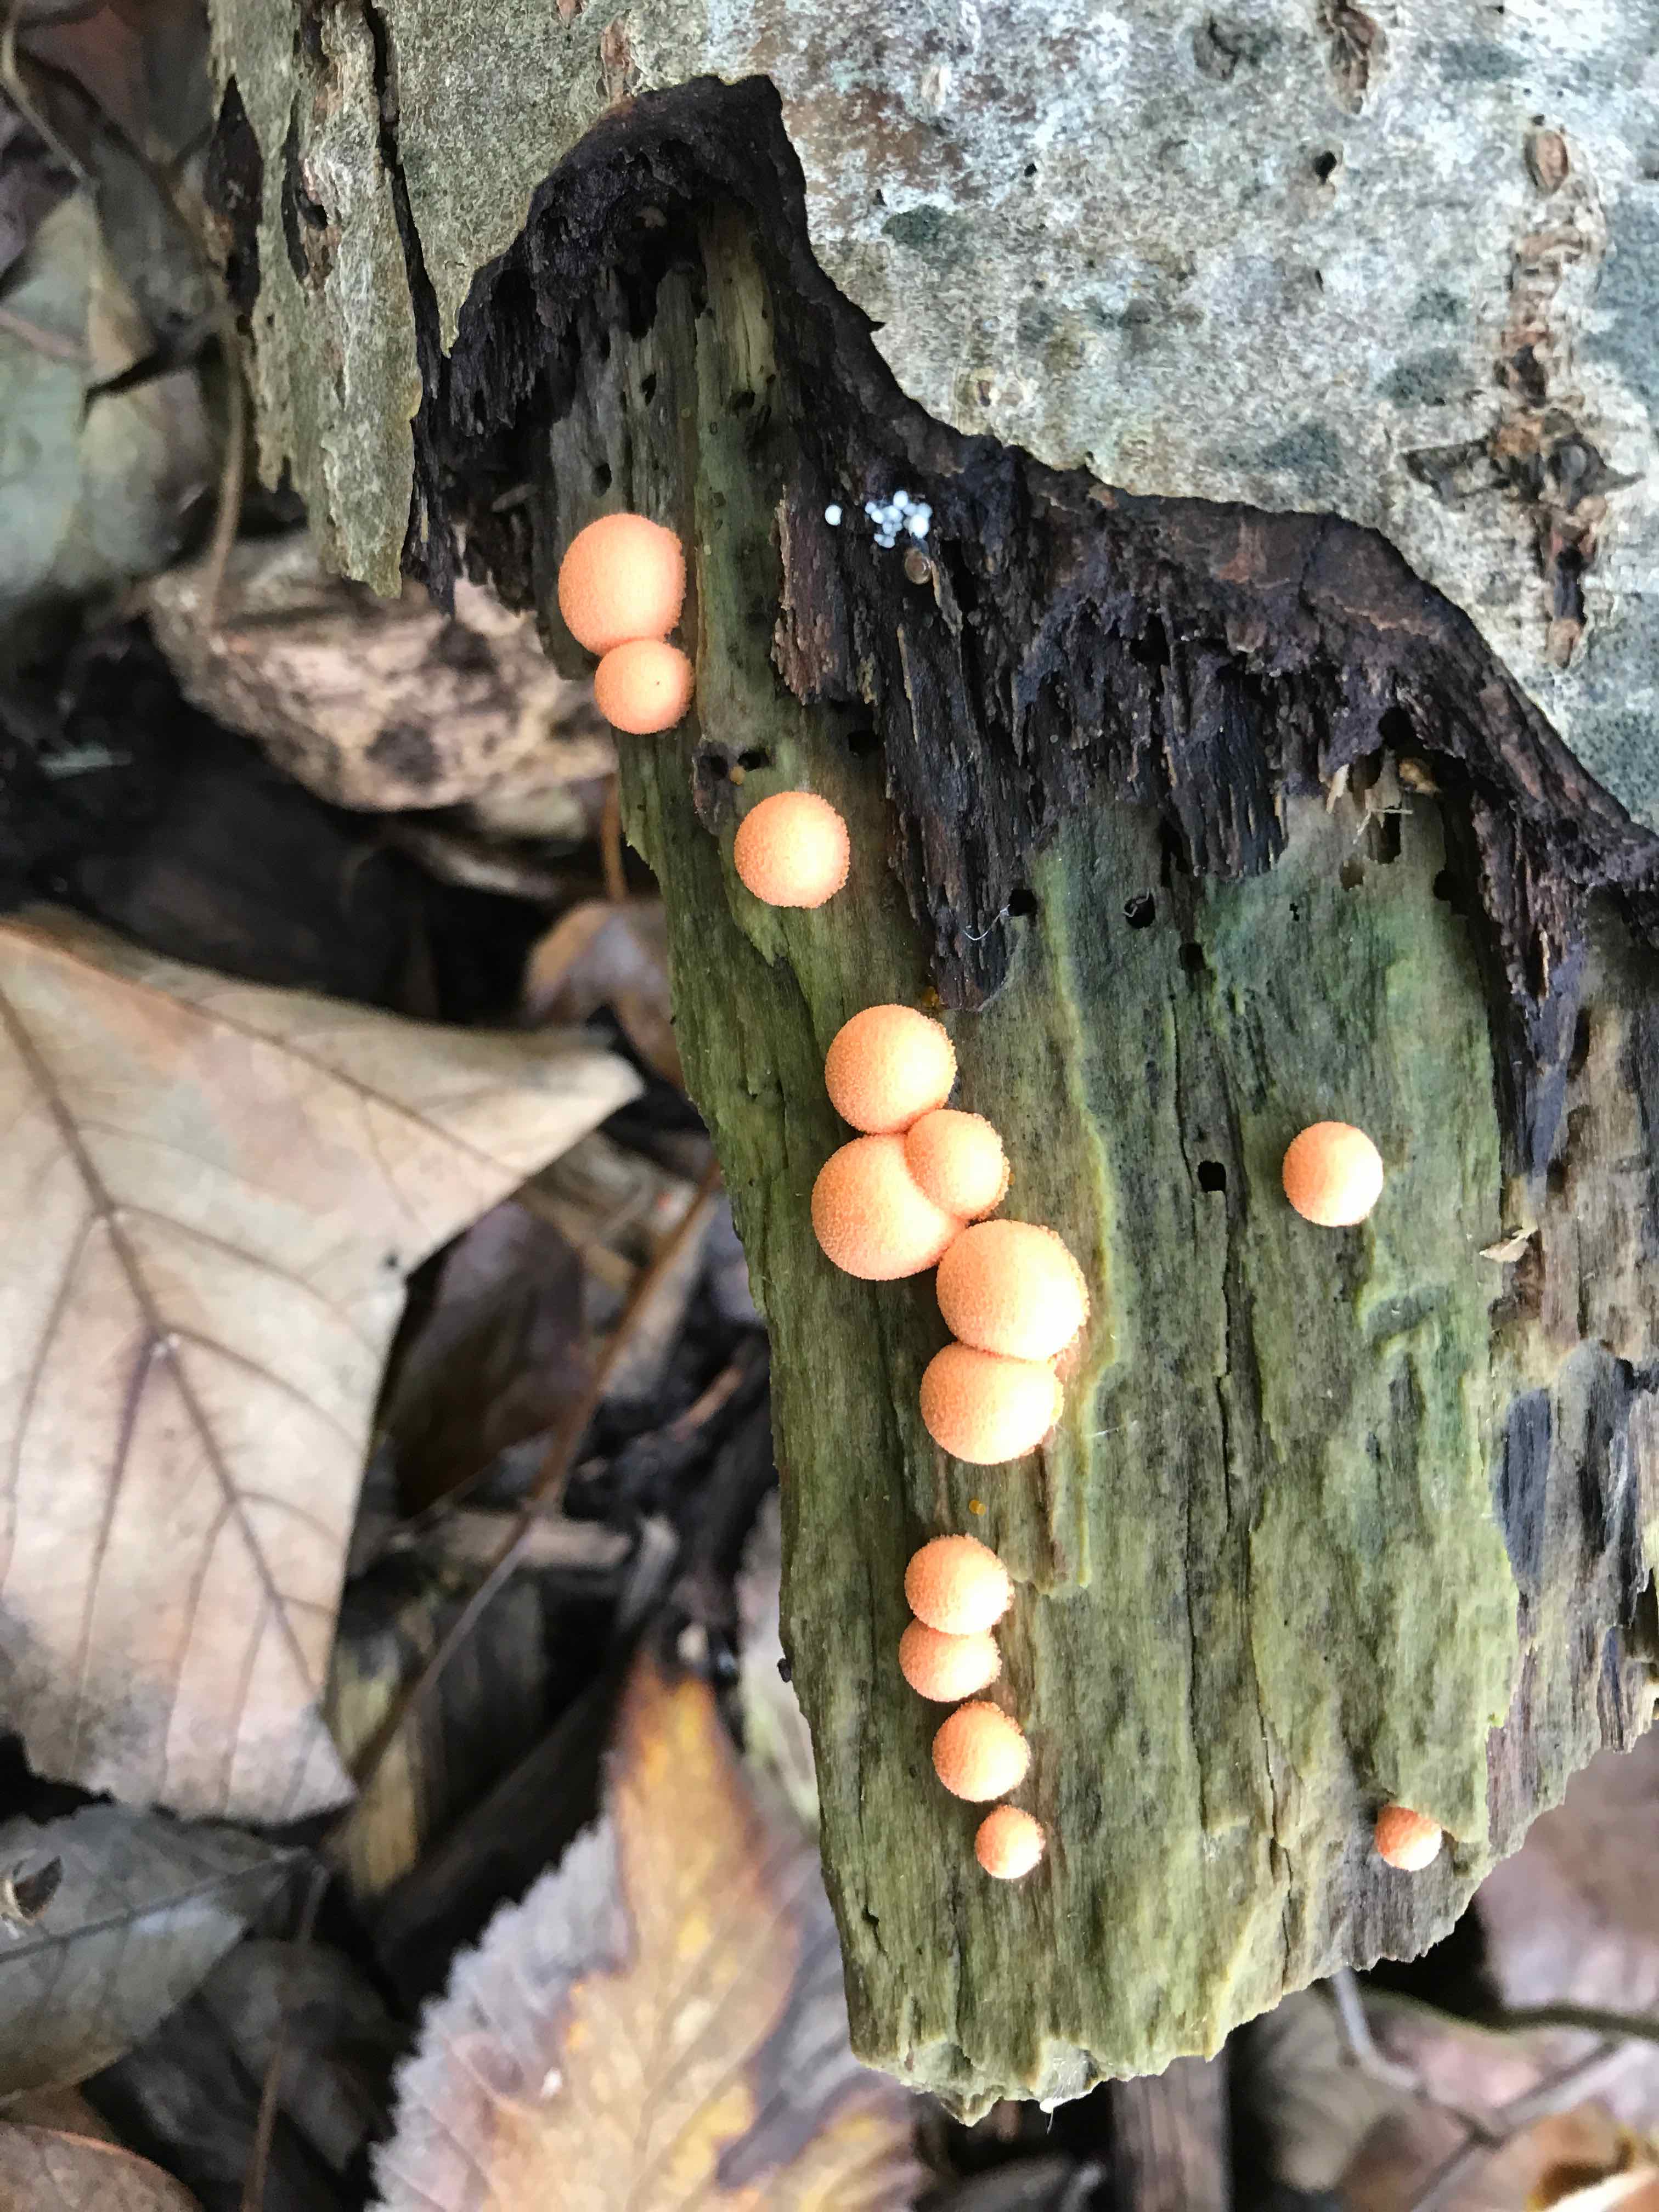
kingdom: Protozoa
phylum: Mycetozoa
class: Myxomycetes
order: Cribrariales
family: Tubiferaceae
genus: Lycogala
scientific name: Lycogala epidendrum
